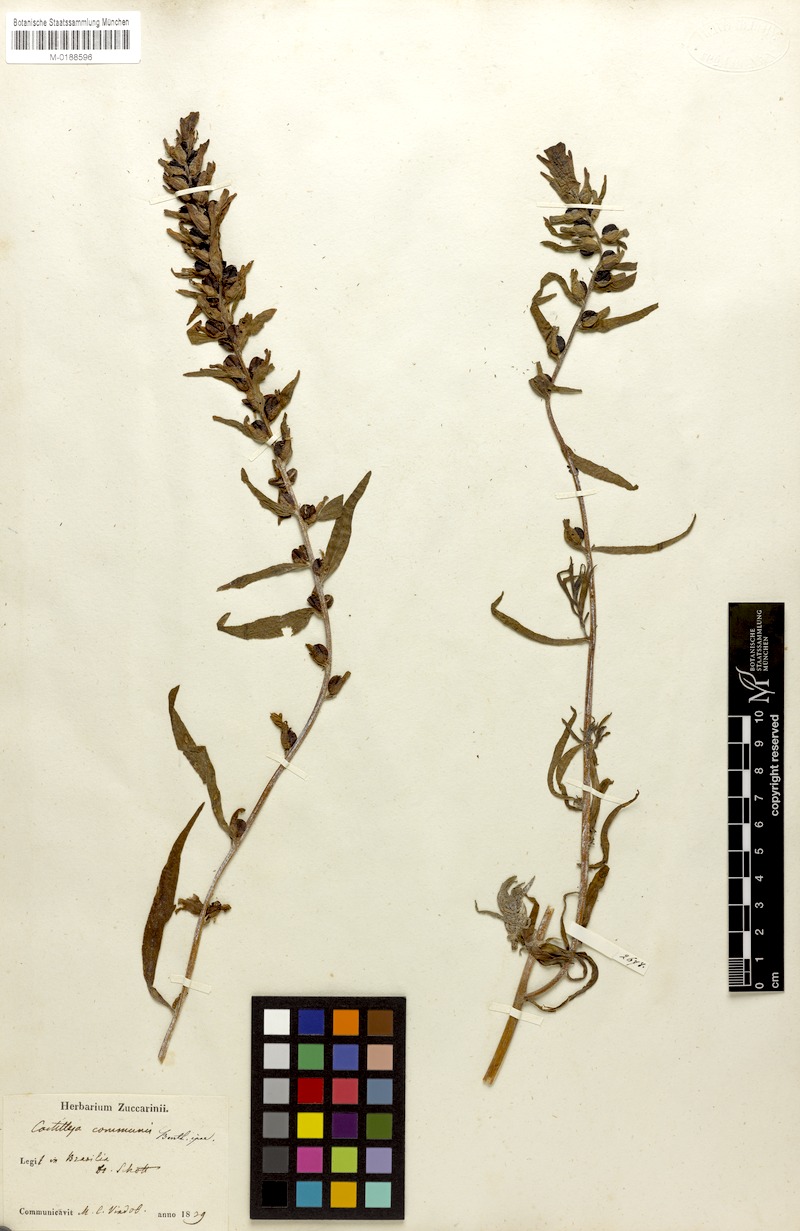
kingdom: Plantae
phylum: Tracheophyta
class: Magnoliopsida
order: Lamiales
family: Orobanchaceae
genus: Castilleja
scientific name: Castilleja scorzonerifolia
